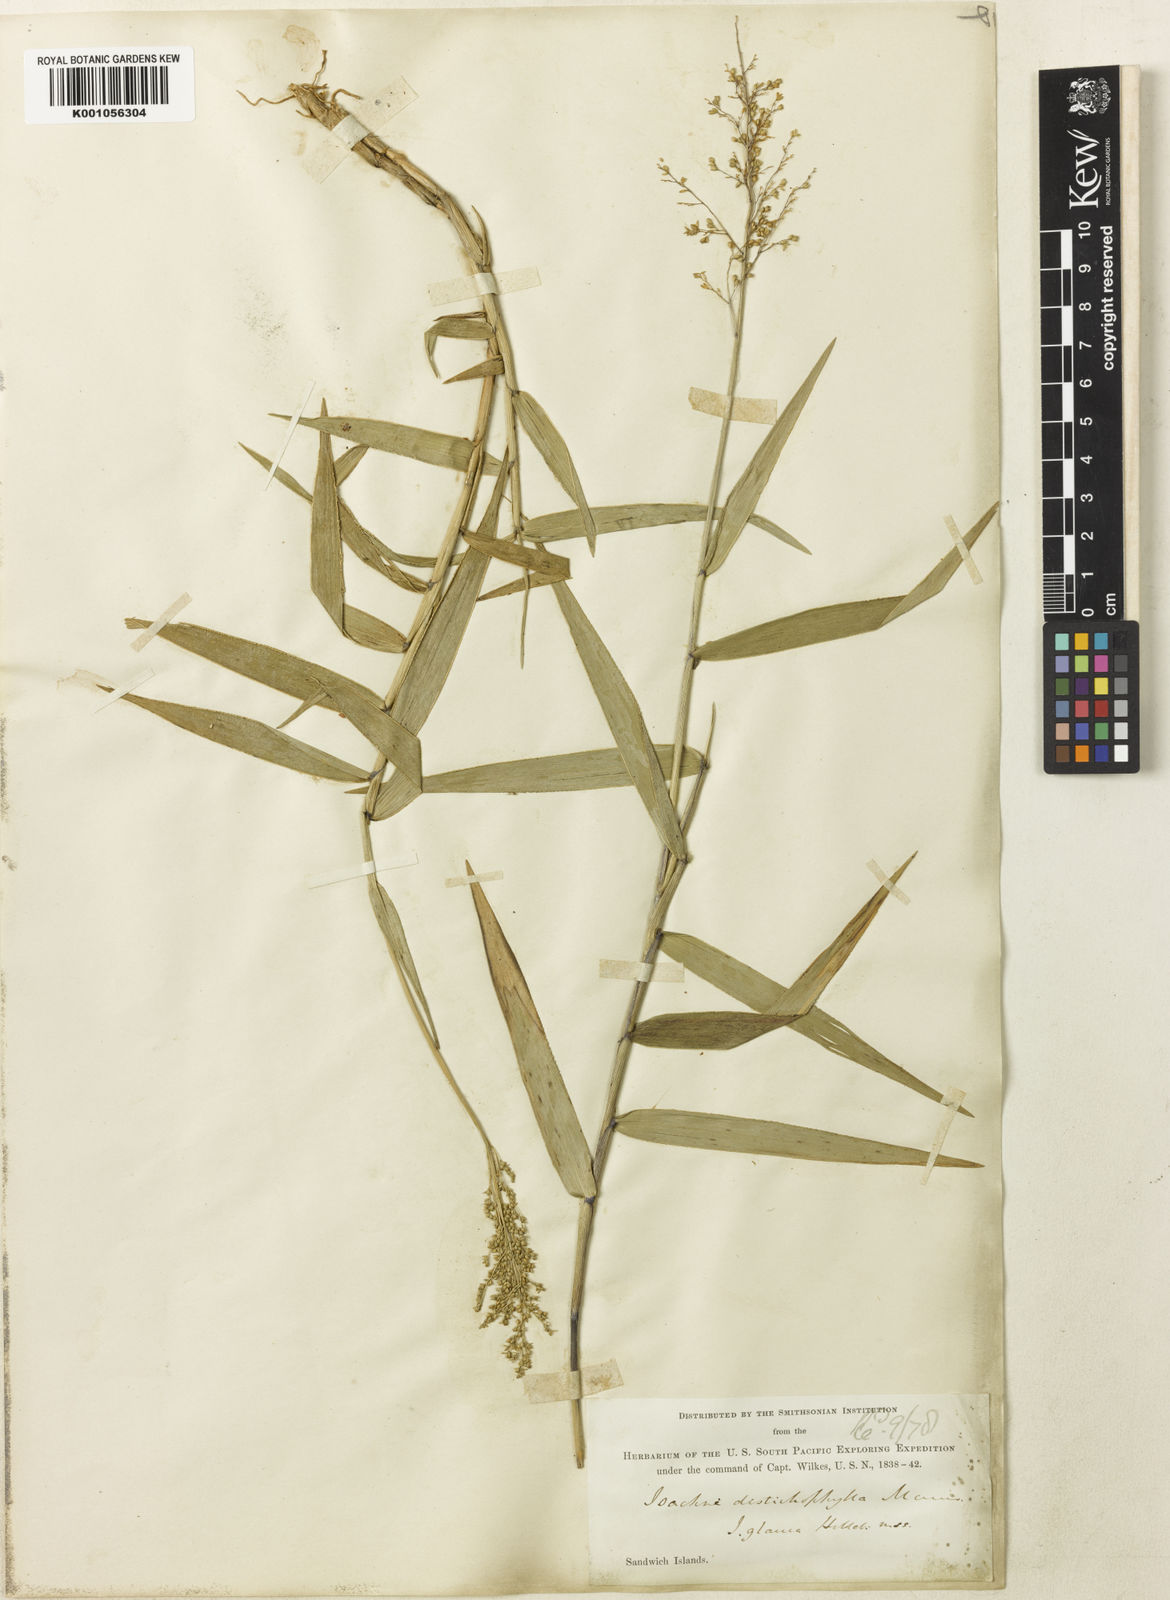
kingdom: Plantae
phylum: Tracheophyta
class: Liliopsida
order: Poales
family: Poaceae
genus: Isachne
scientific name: Isachne distichophylla
